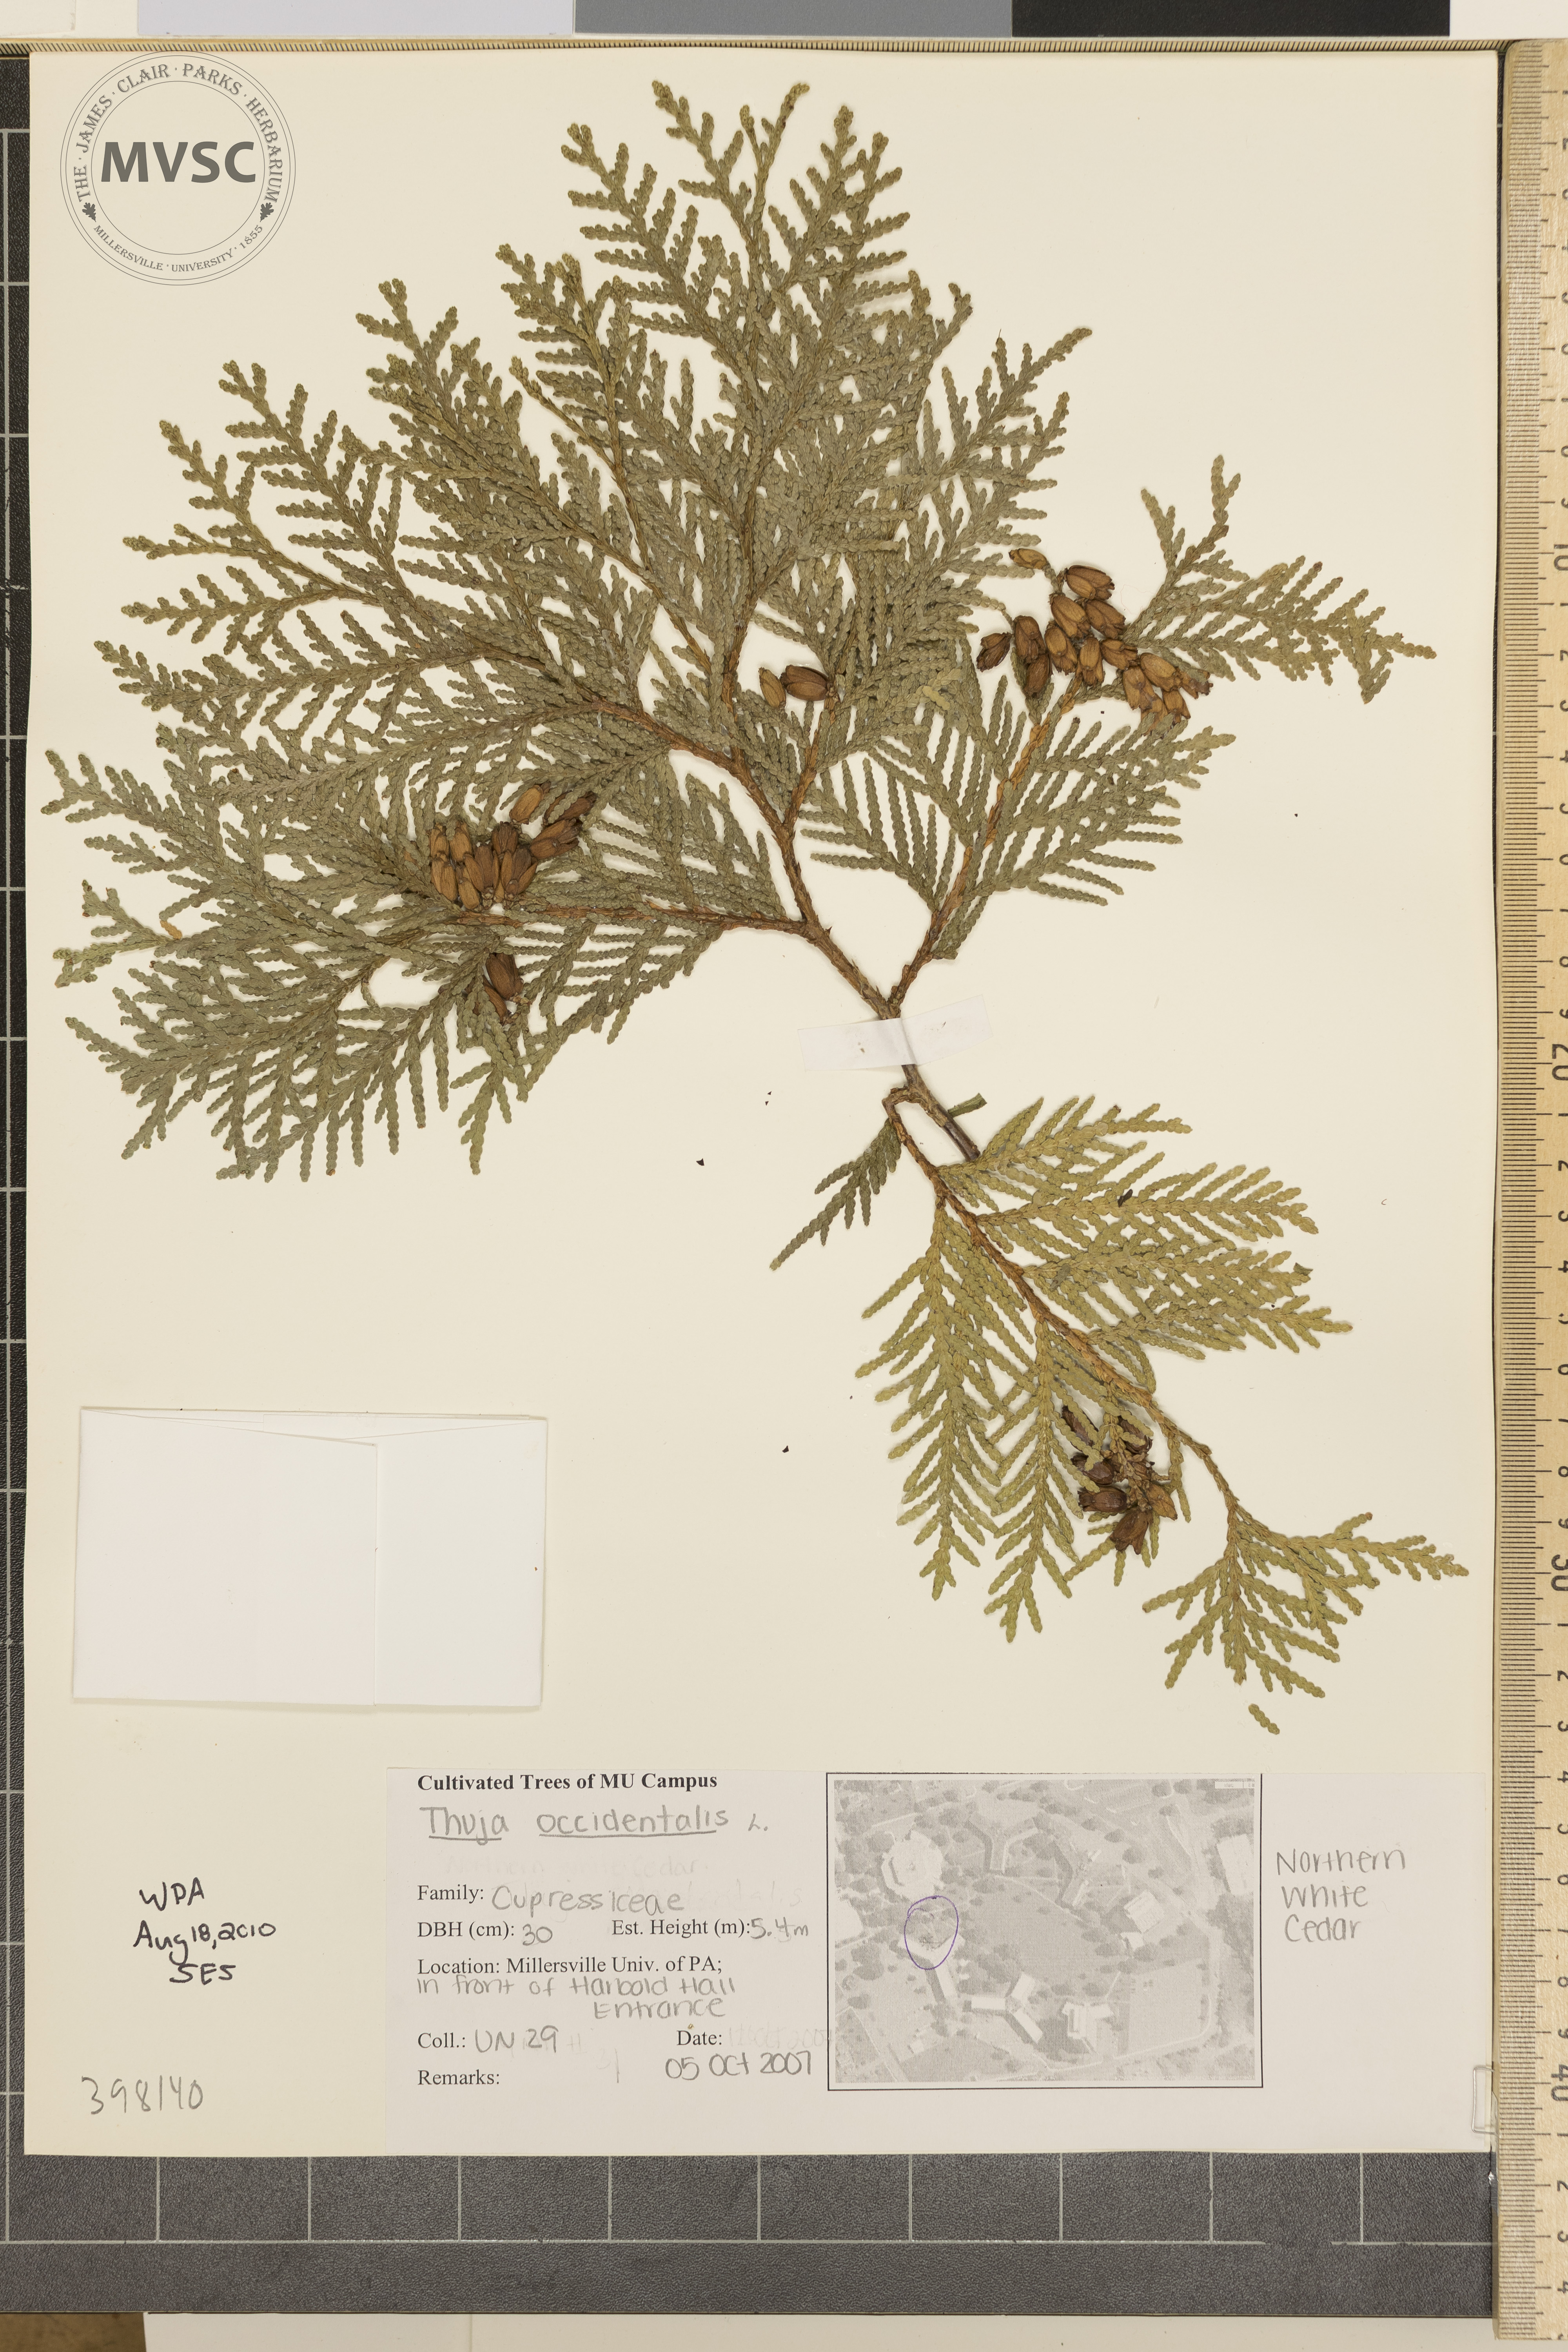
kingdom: Plantae
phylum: Tracheophyta
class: Pinopsida
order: Pinales
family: Cupressaceae
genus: Thuja
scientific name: Thuja occidentalis
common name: Arbor-vitae
